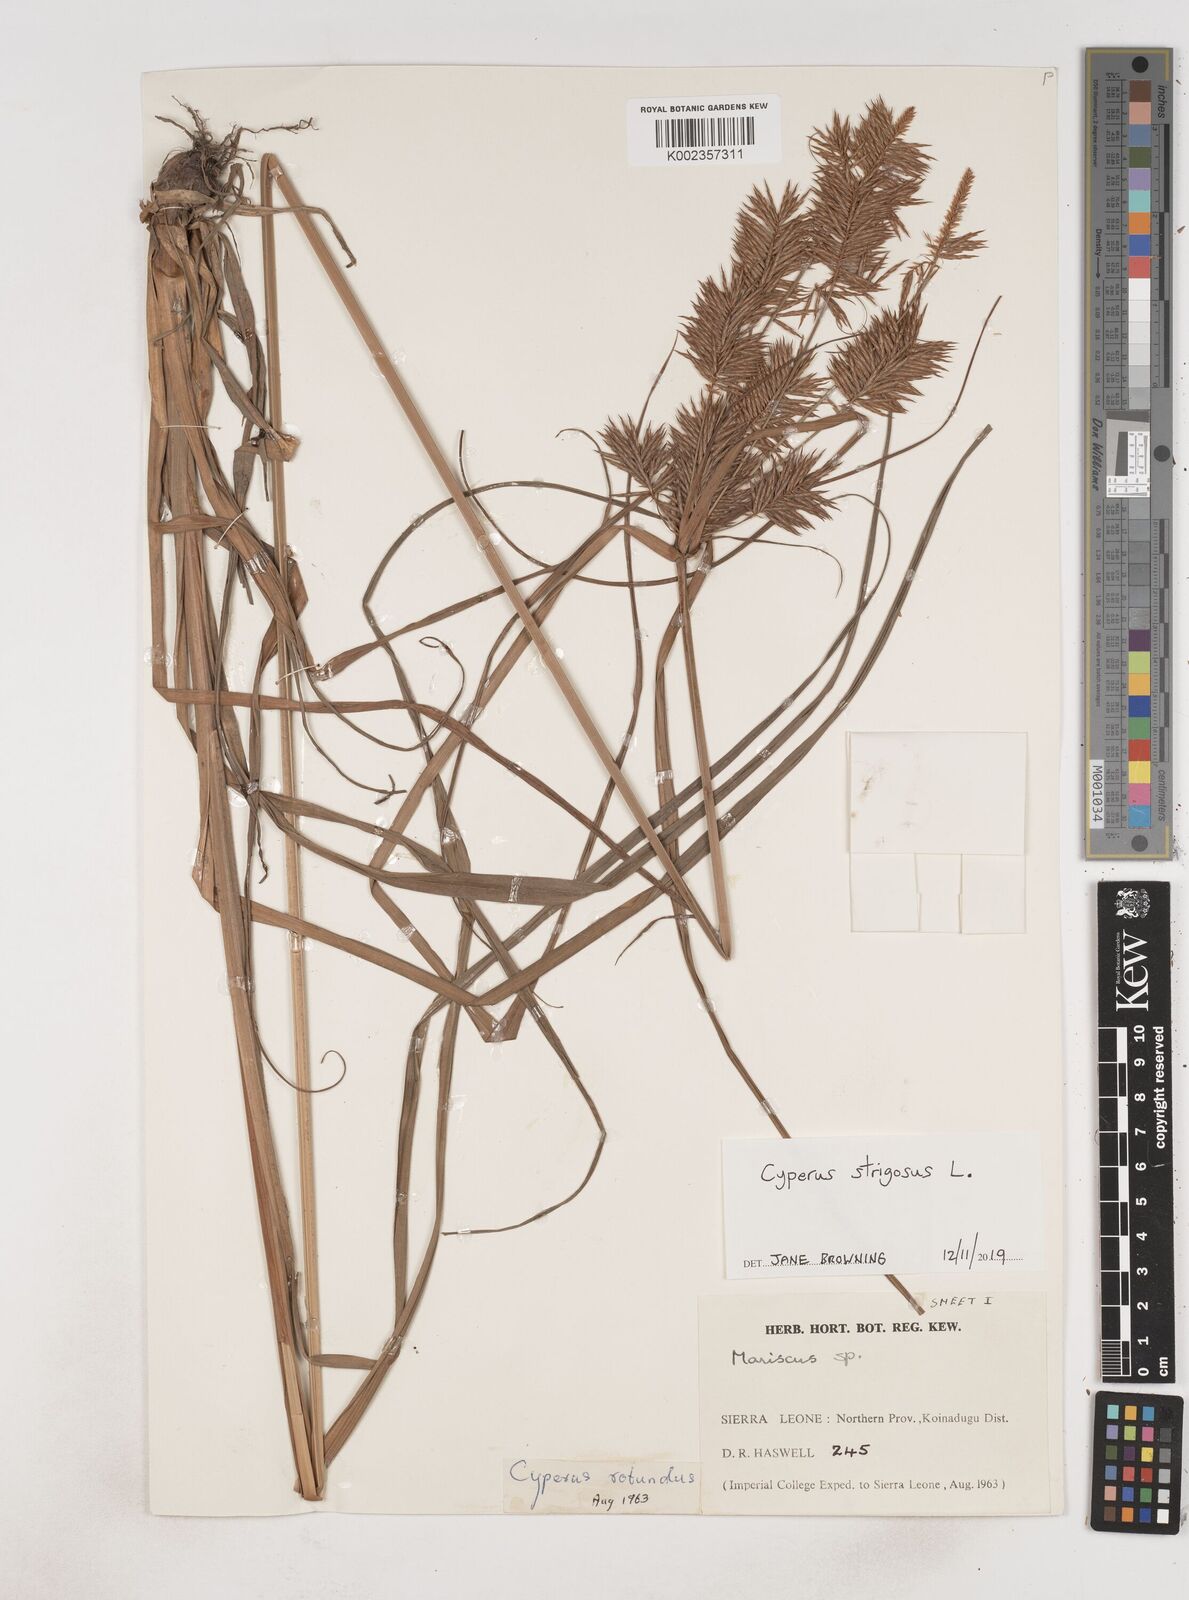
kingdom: Plantae
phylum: Tracheophyta
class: Liliopsida
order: Poales
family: Cyperaceae
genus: Cyperus
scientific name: Cyperus strigosus
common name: False nutsedge
